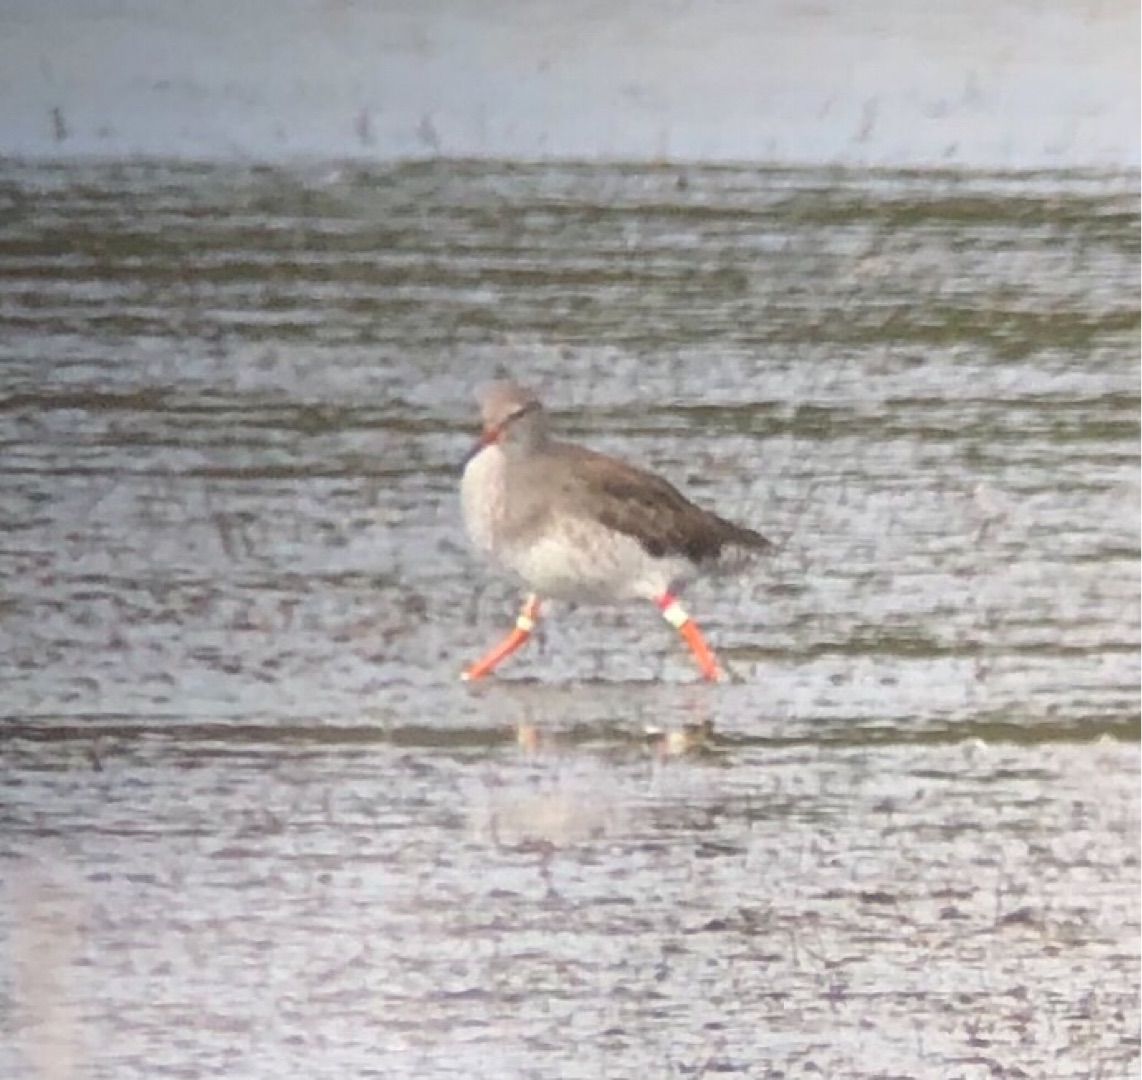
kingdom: Animalia
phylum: Chordata
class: Aves
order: Charadriiformes
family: Scolopacidae
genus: Tringa
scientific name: Tringa totanus
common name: Rødben
